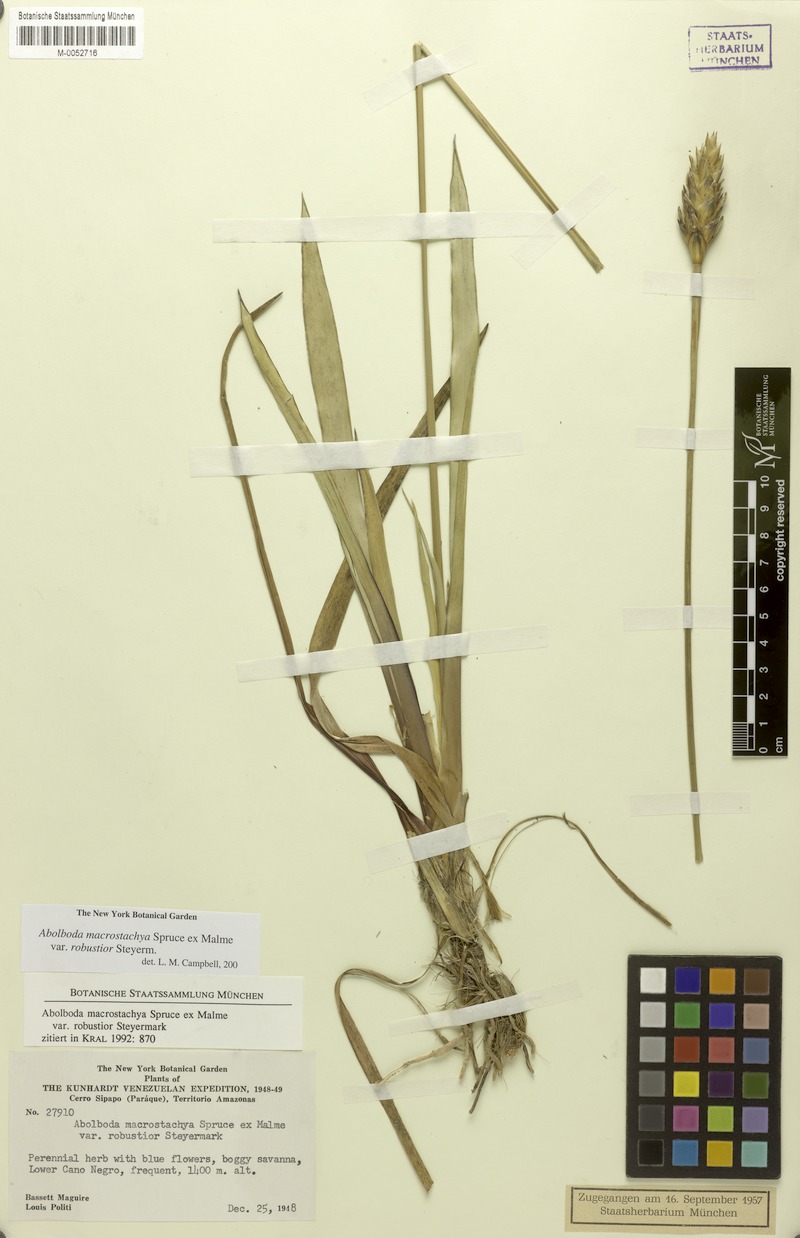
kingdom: Plantae
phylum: Tracheophyta
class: Liliopsida
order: Poales
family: Xyridaceae
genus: Abolboda
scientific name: Abolboda macrostachya
